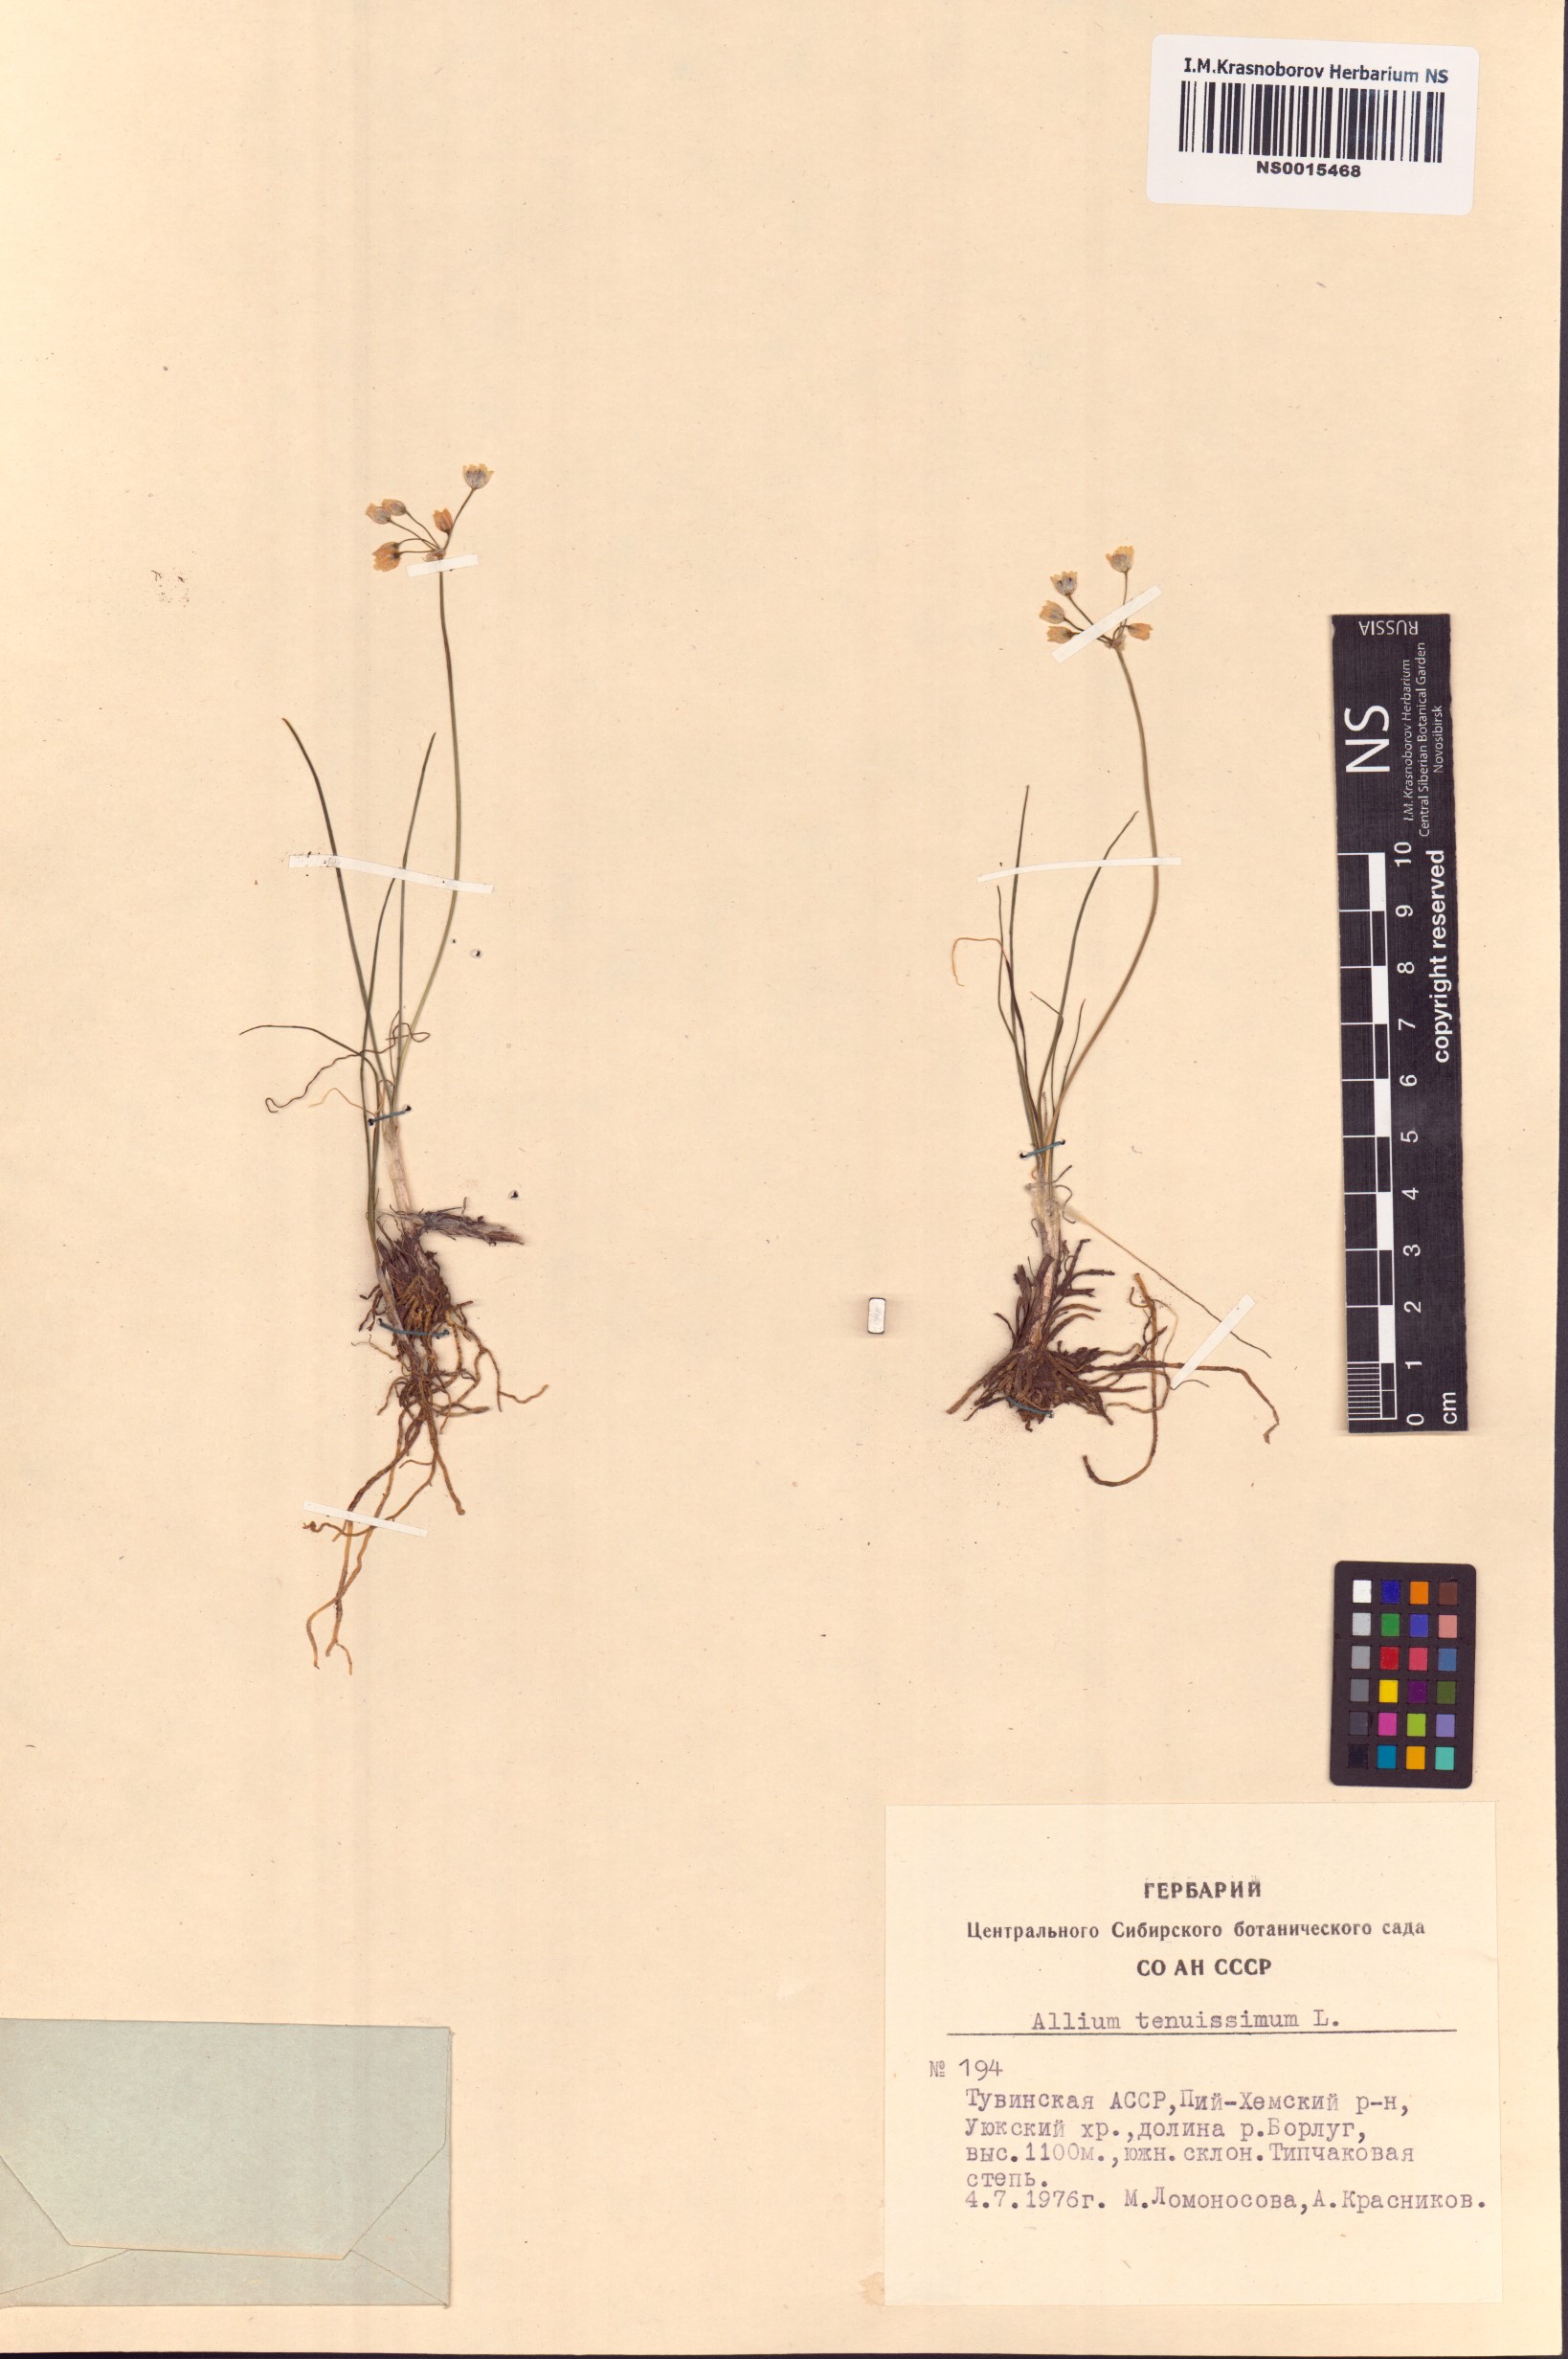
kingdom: Plantae
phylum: Tracheophyta
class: Liliopsida
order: Asparagales
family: Amaryllidaceae
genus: Allium
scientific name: Allium tenuissimum
